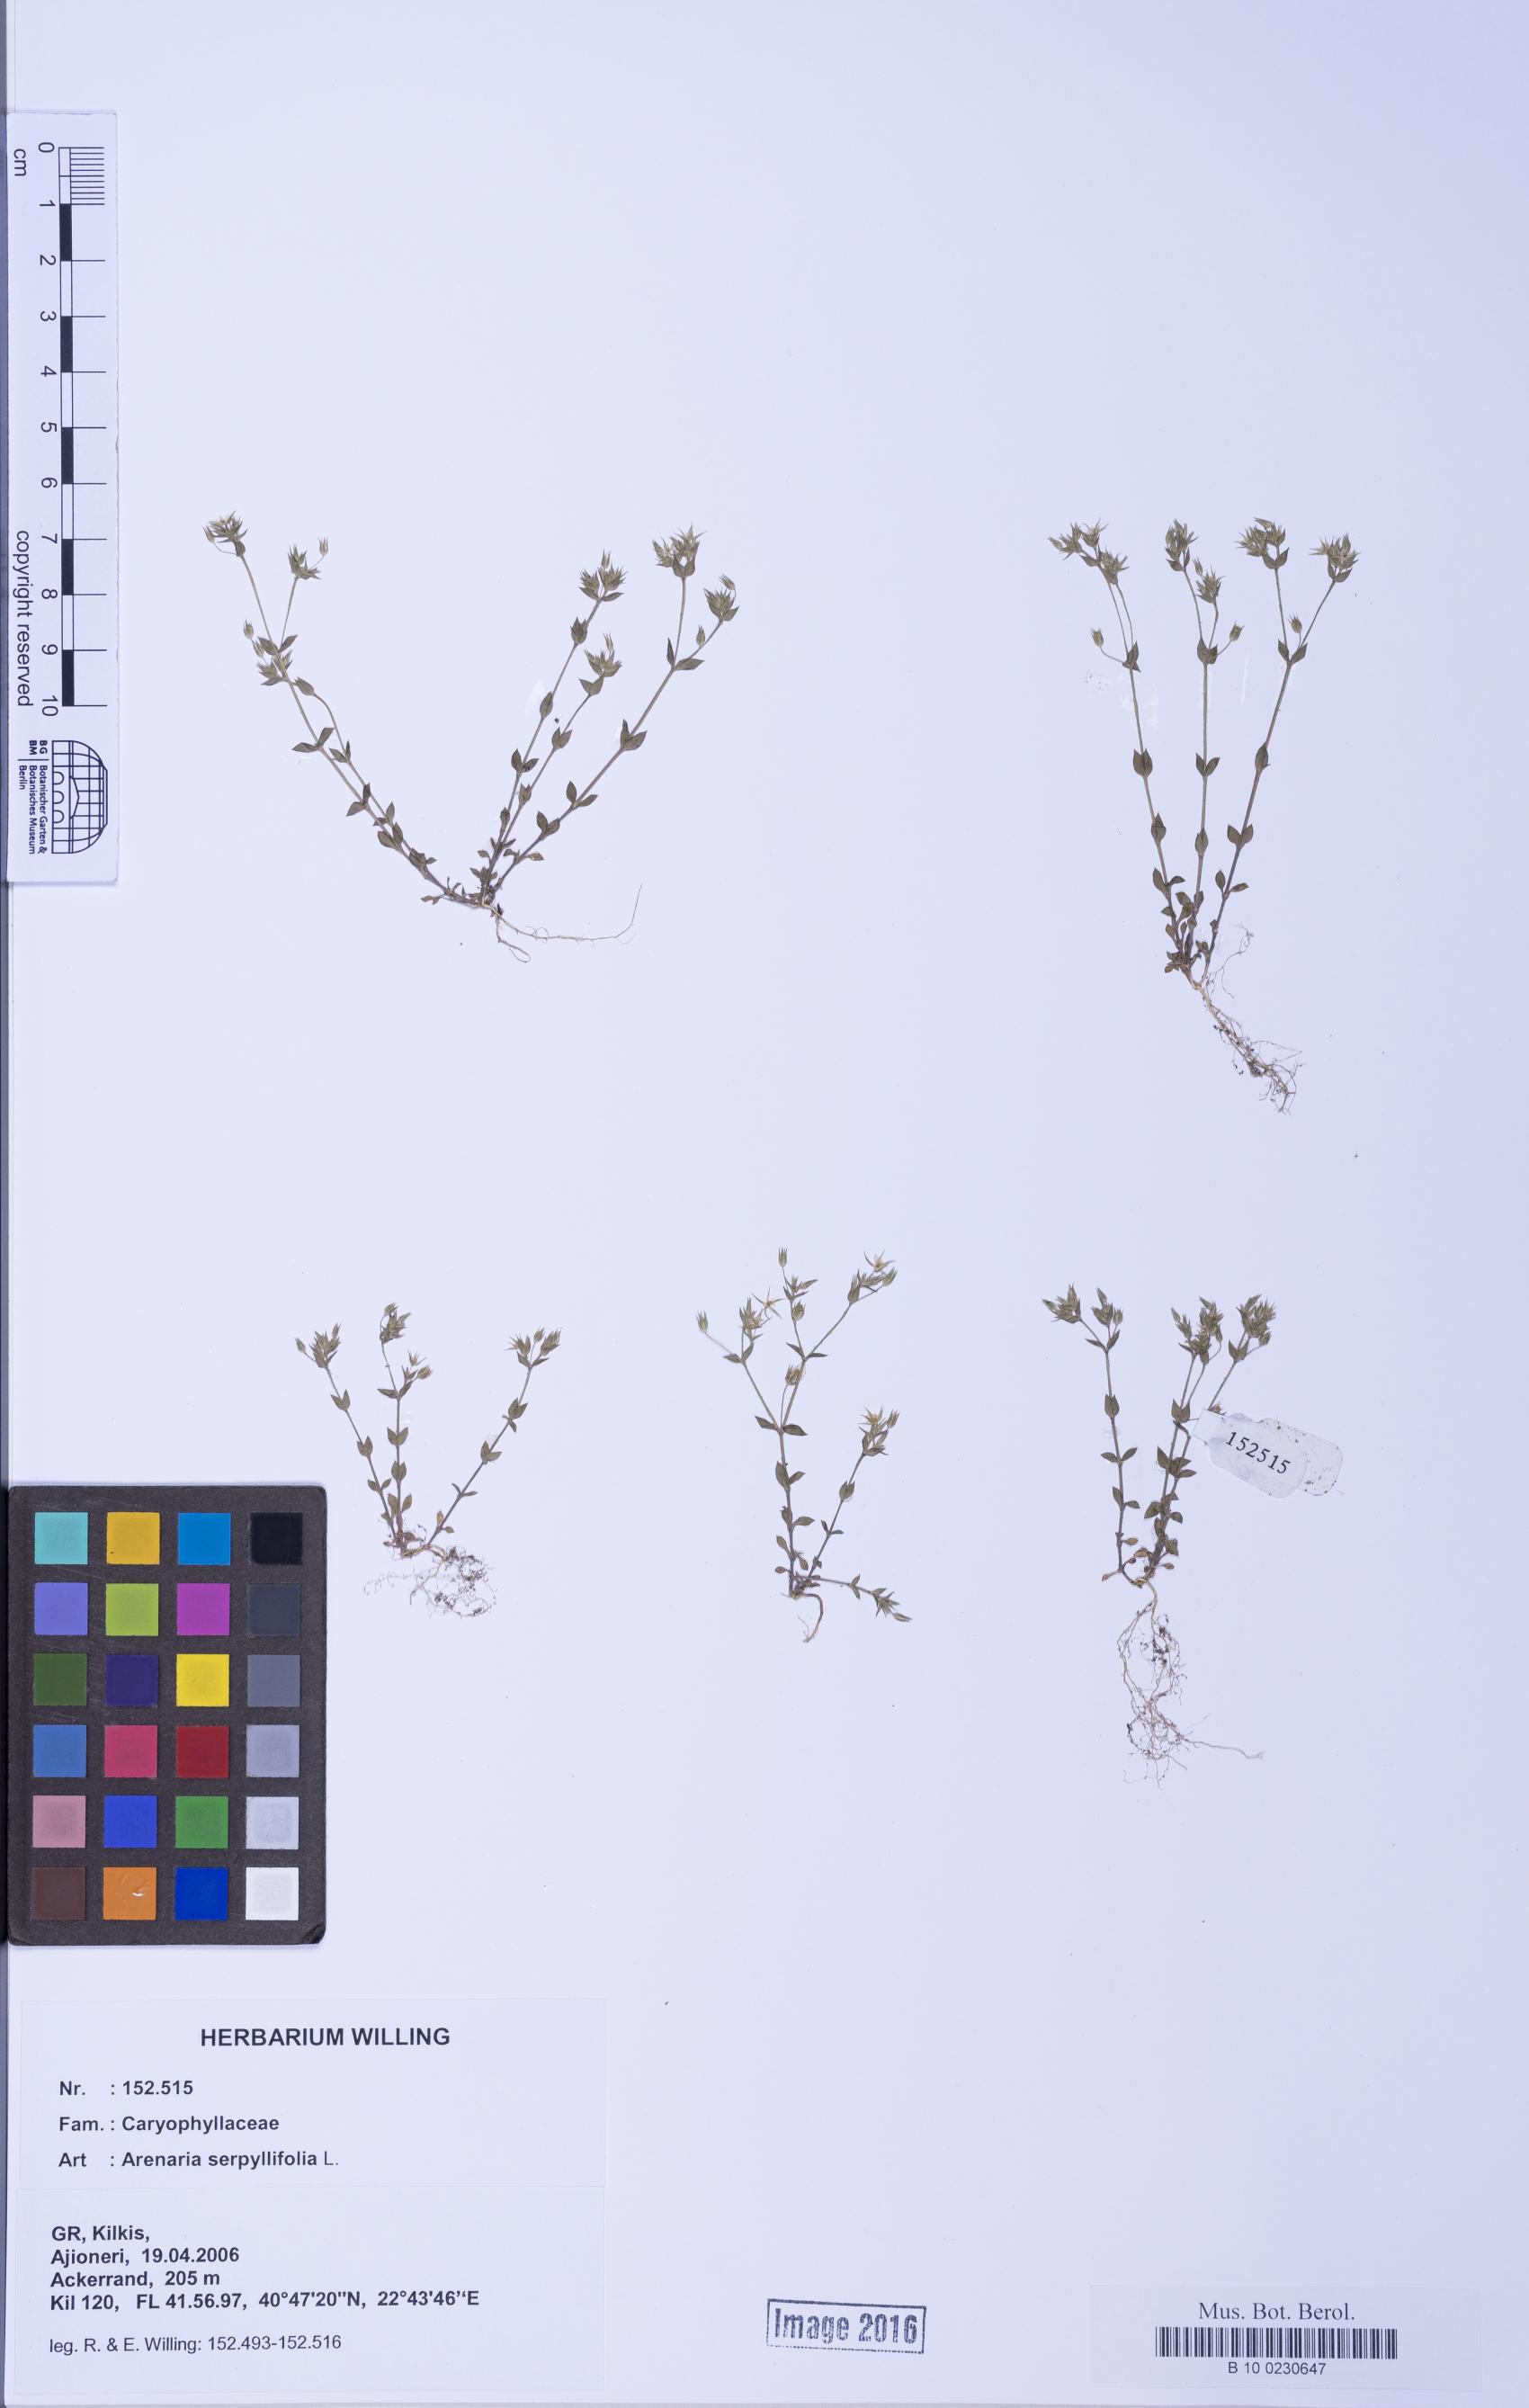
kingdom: Plantae
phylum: Tracheophyta
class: Magnoliopsida
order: Caryophyllales
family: Caryophyllaceae
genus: Arenaria
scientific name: Arenaria serpyllifolia
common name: Thyme-leaved sandwort
